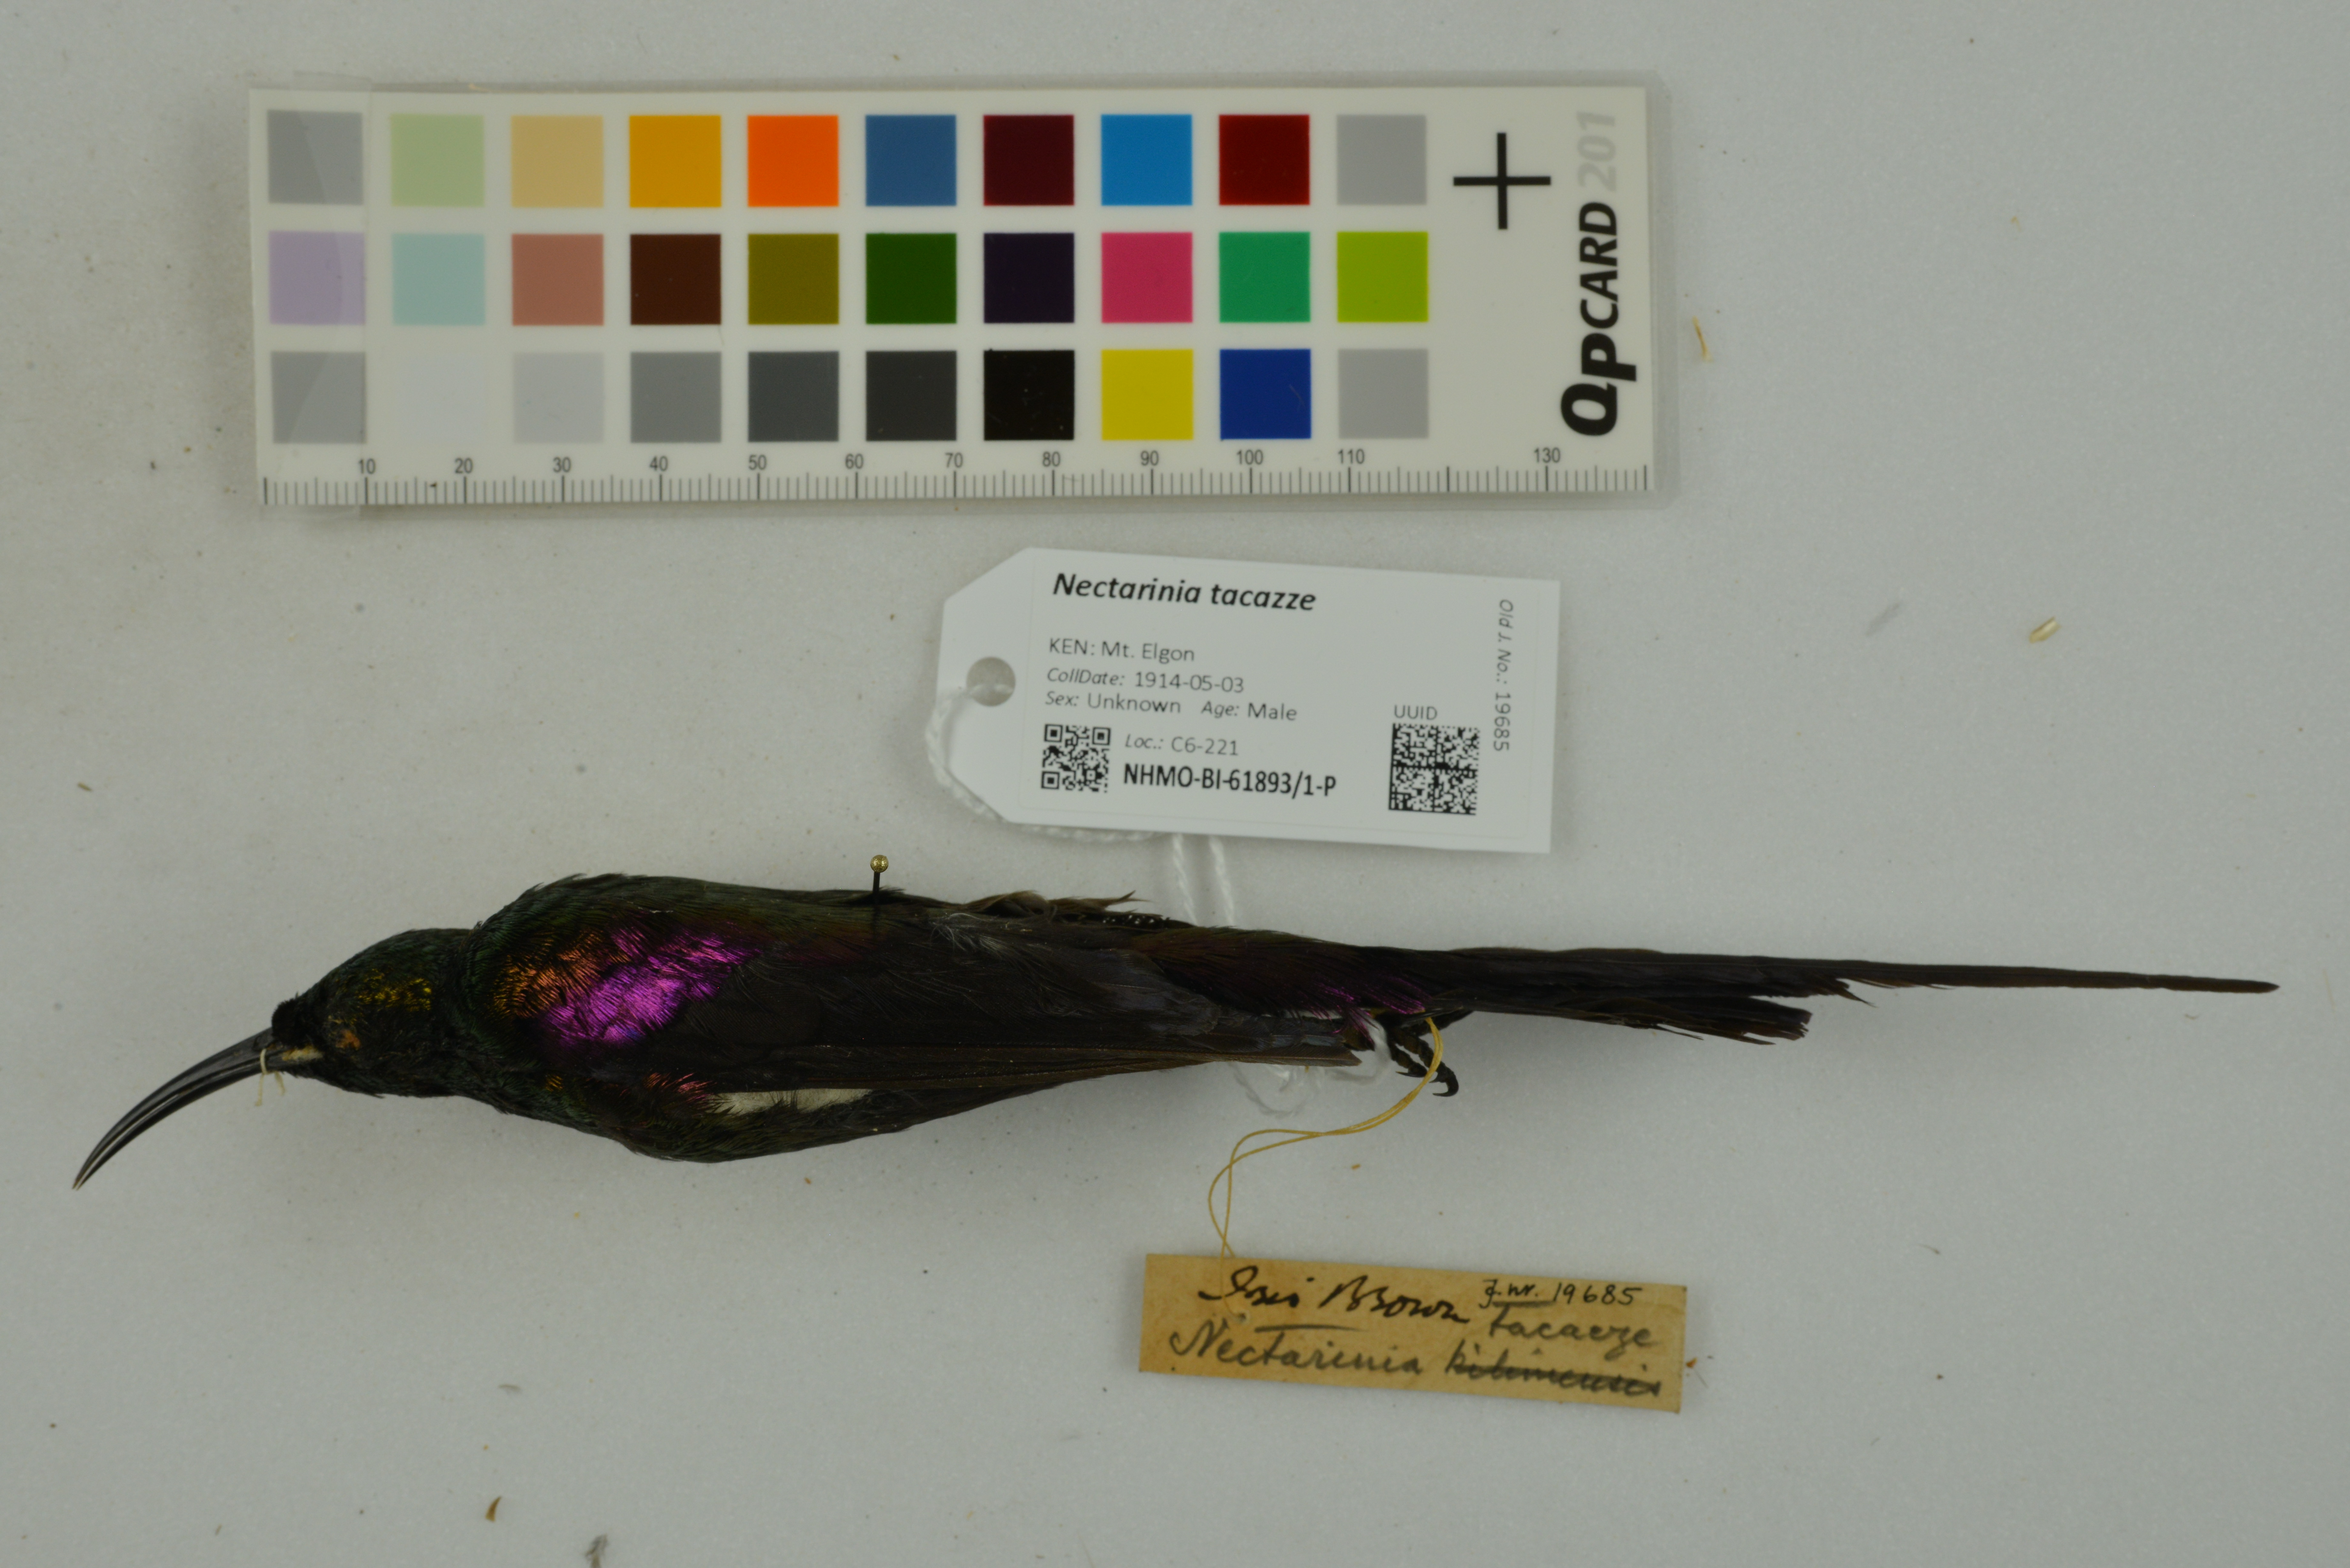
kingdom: Animalia
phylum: Chordata
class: Aves
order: Passeriformes
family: Nectariniidae
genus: Nectarinia
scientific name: Nectarinia tacazze
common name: Tacazze sunbird
